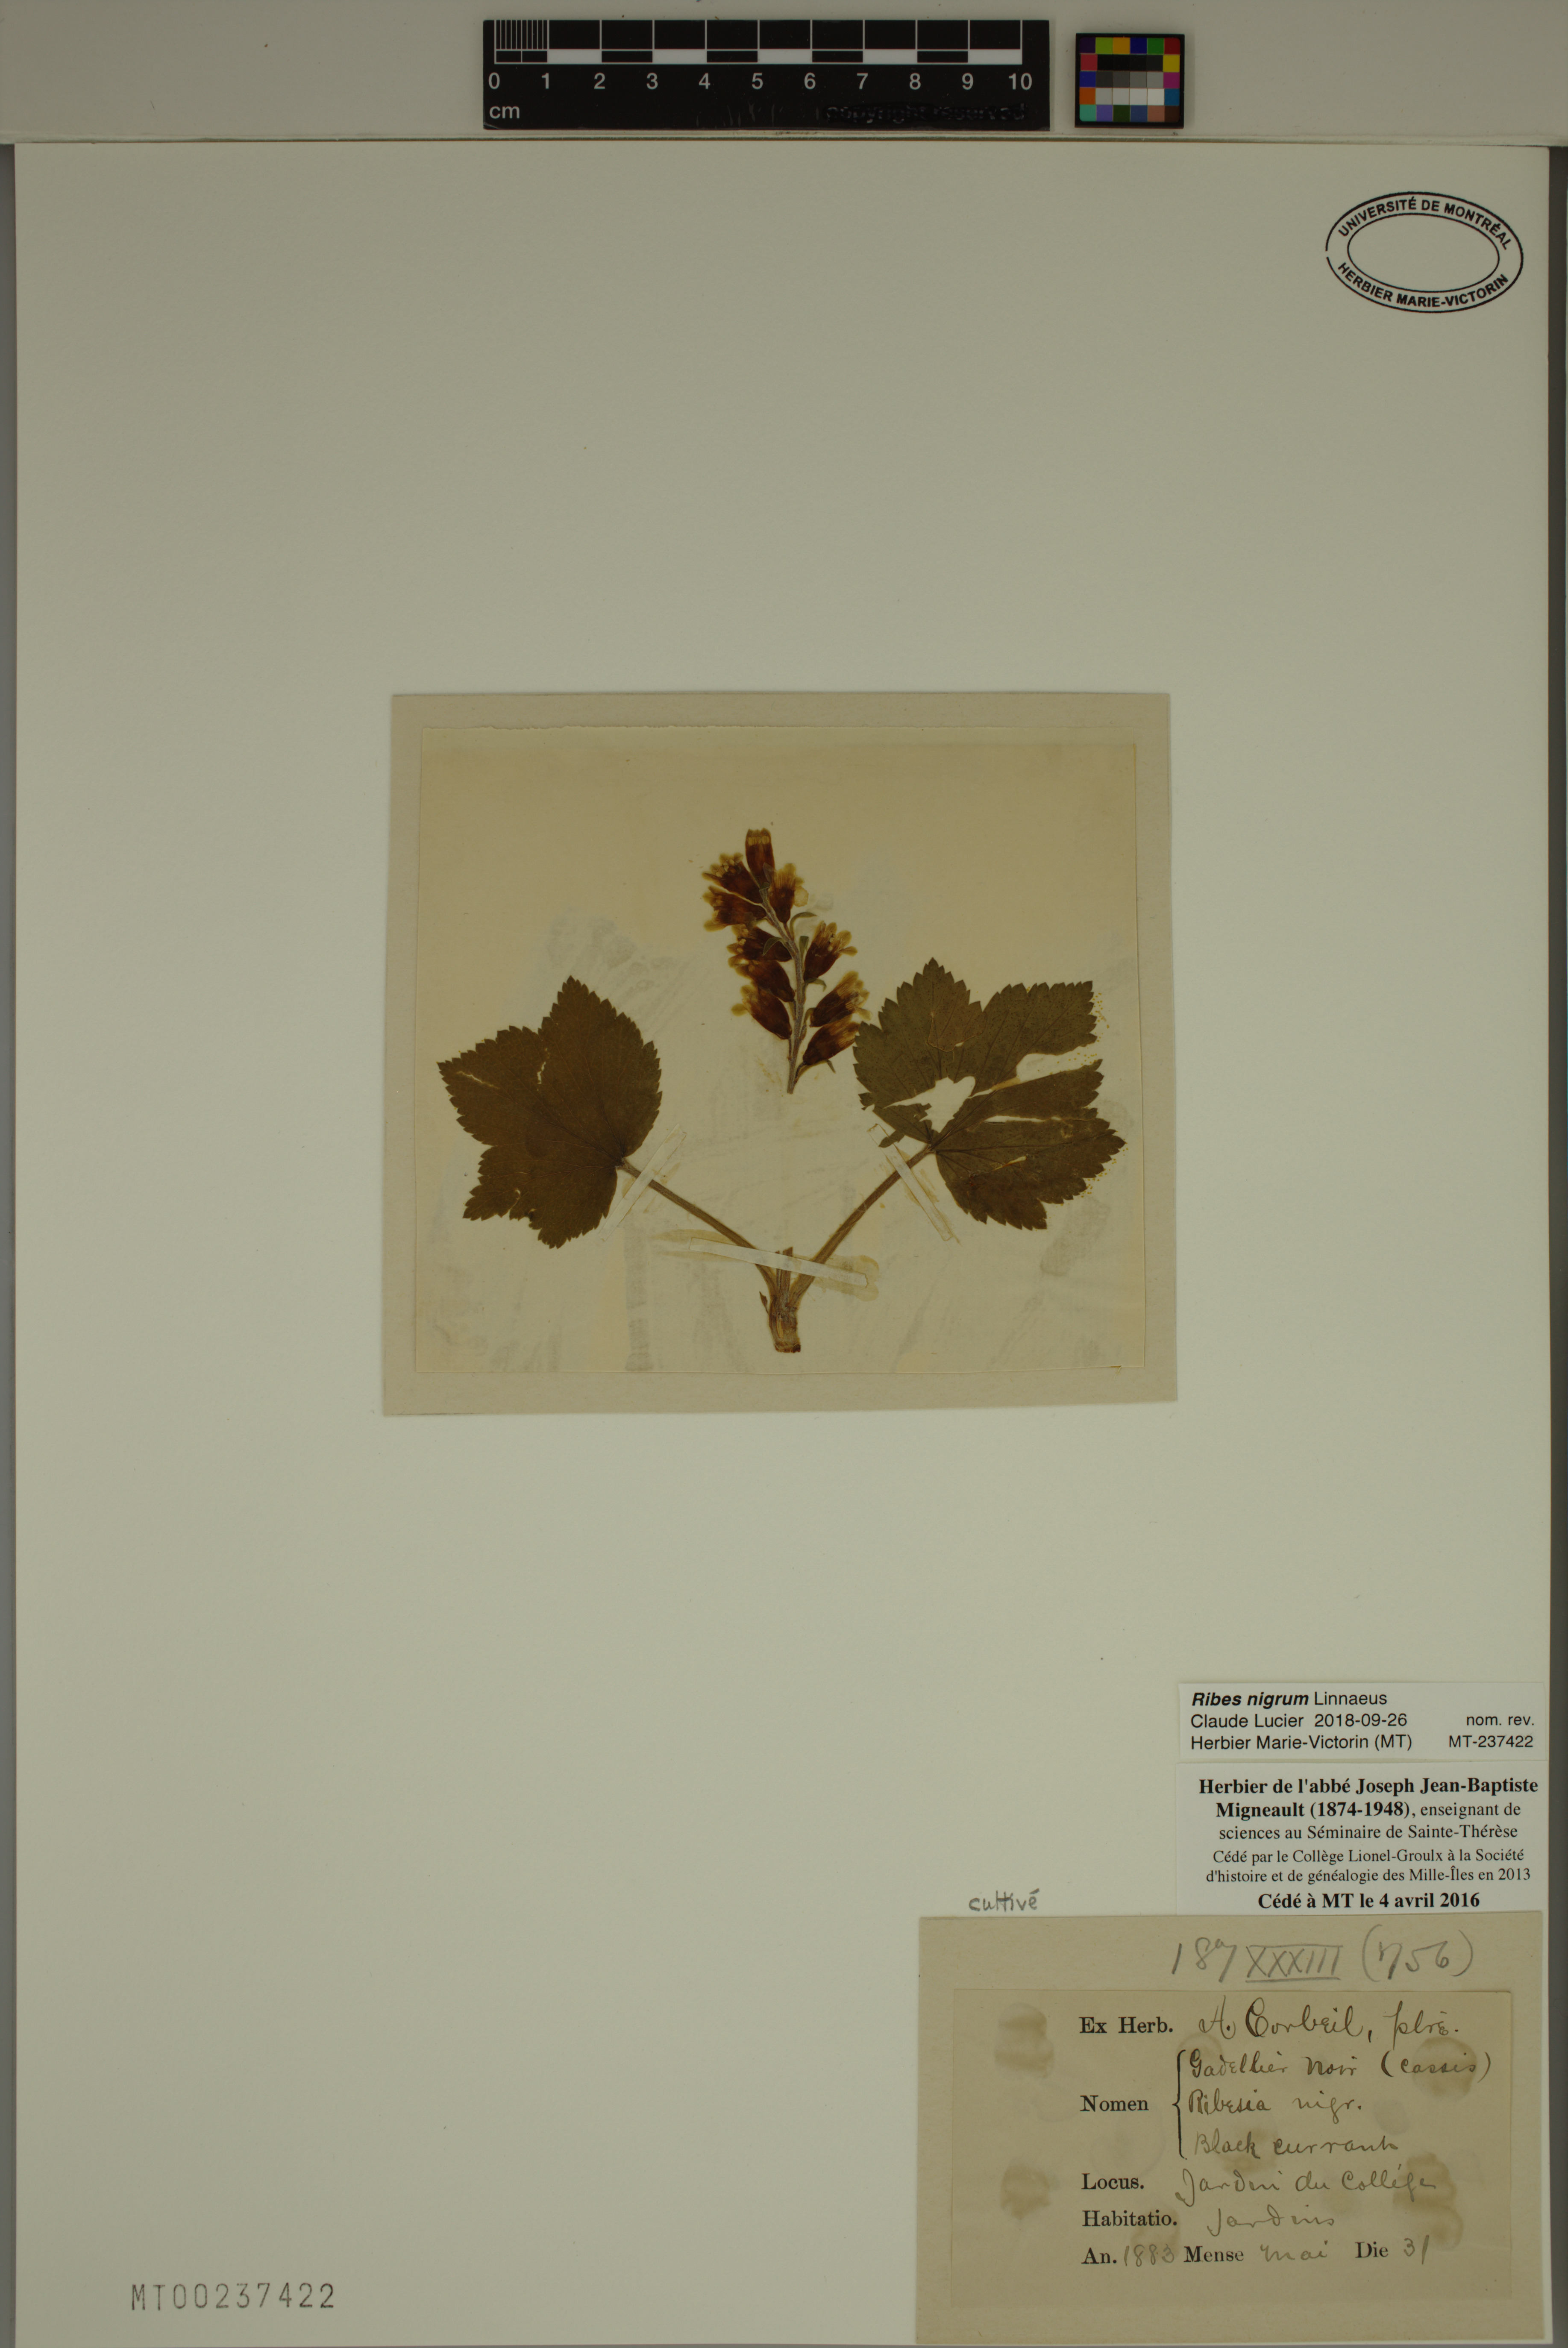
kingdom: Plantae
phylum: Tracheophyta
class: Magnoliopsida
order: Saxifragales
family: Grossulariaceae
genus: Ribes
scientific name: Ribes nigrum
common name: Black currant
